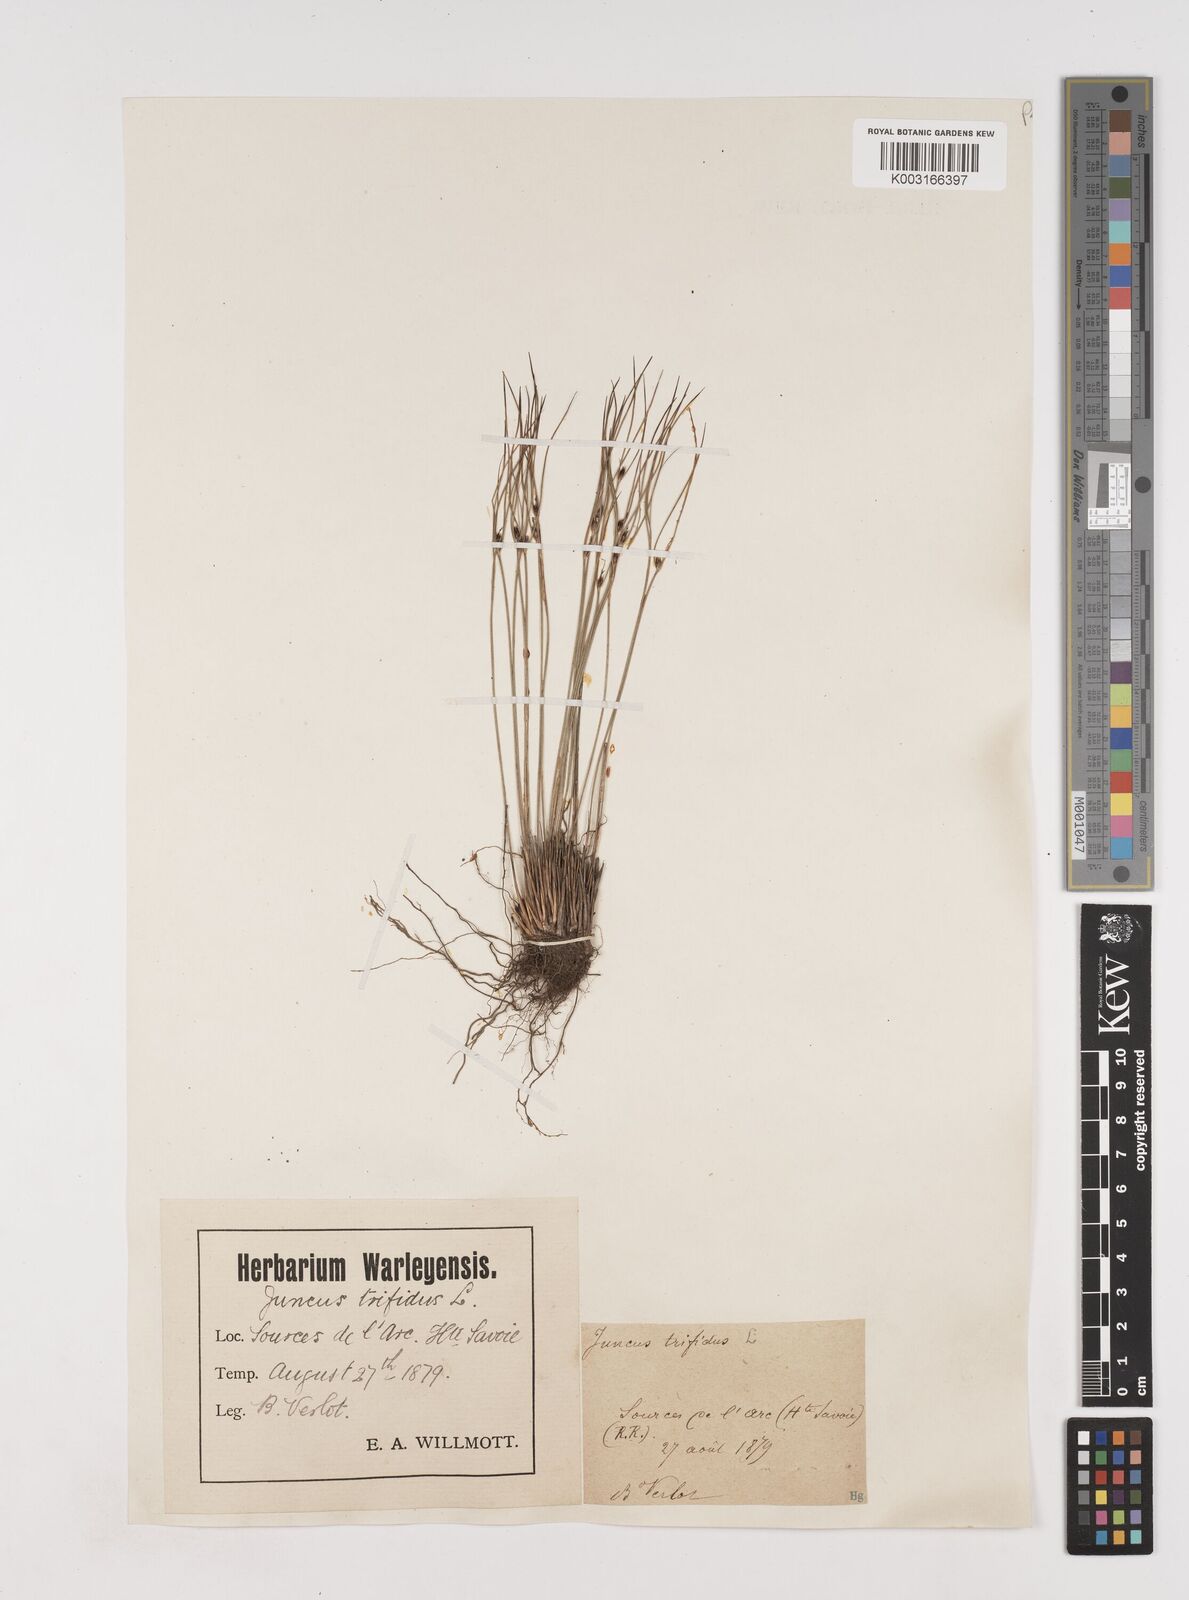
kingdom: Plantae
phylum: Tracheophyta
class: Liliopsida
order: Poales
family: Juncaceae
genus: Oreojuncus
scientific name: Oreojuncus trifidus
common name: Highland rush
